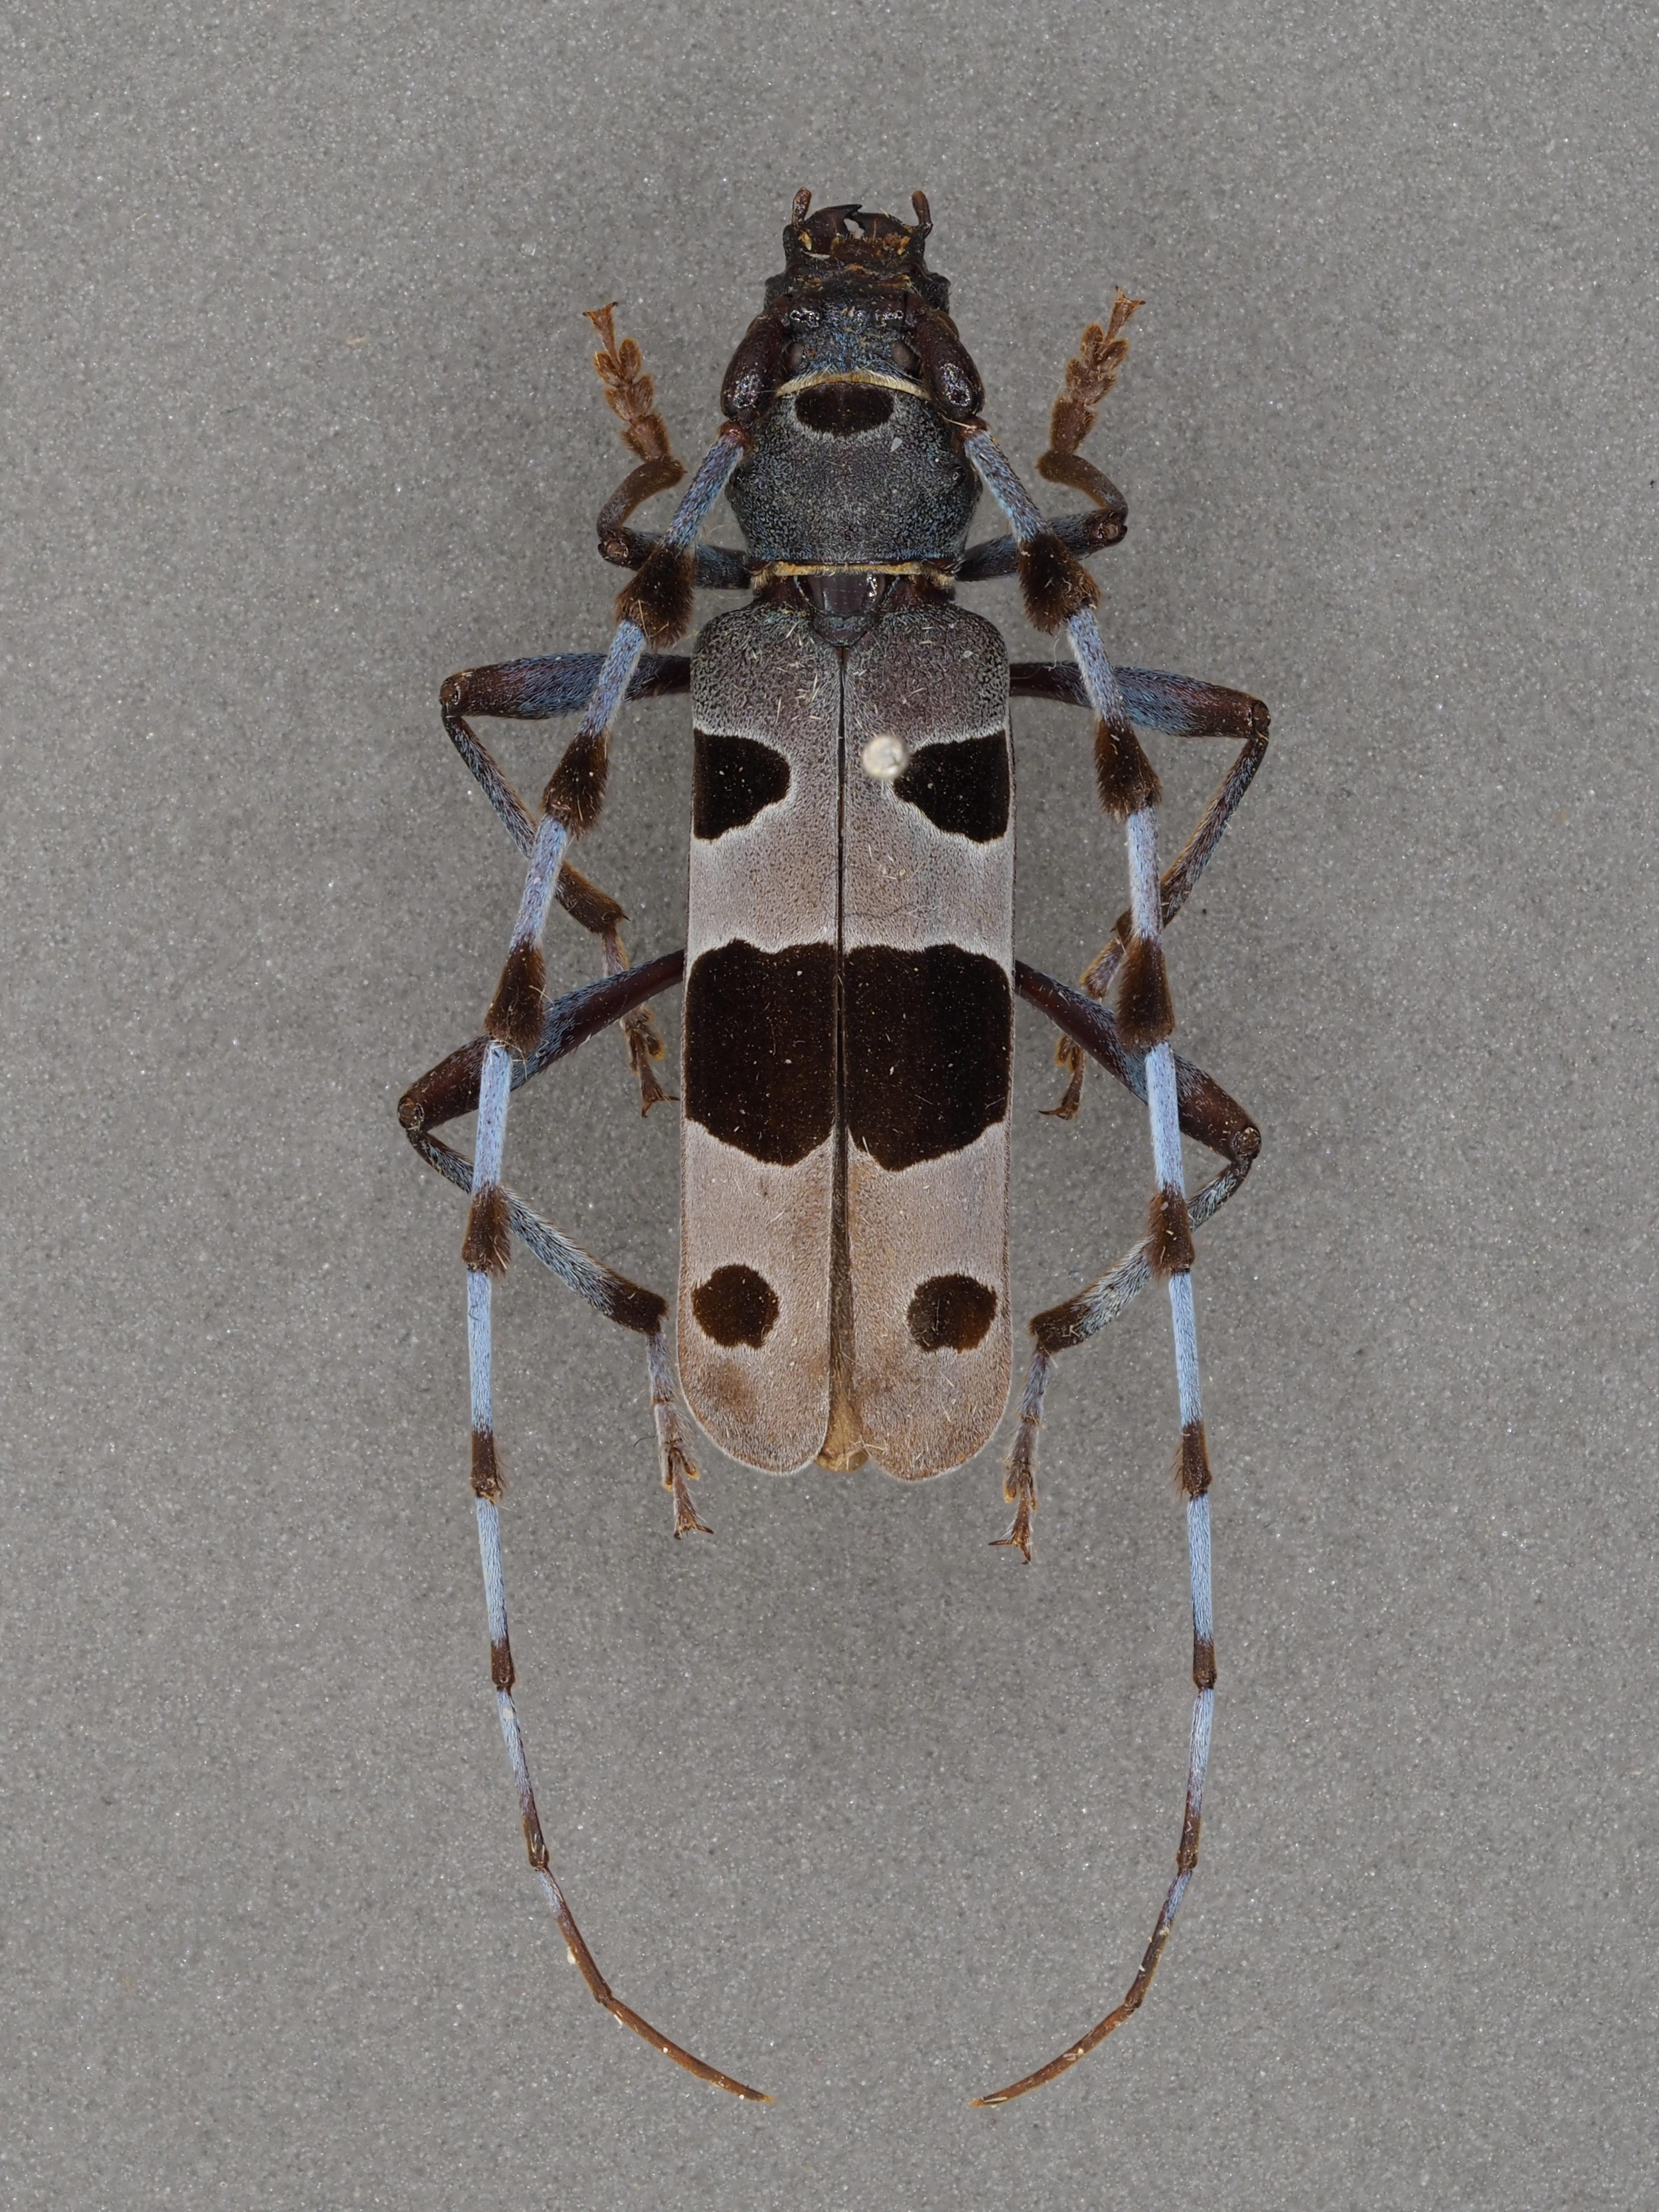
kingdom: Animalia
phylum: Arthropoda
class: Insecta
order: Coleoptera
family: Cerambycidae
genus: Rosalia
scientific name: Rosalia alpina
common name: Rosalia longicorn
